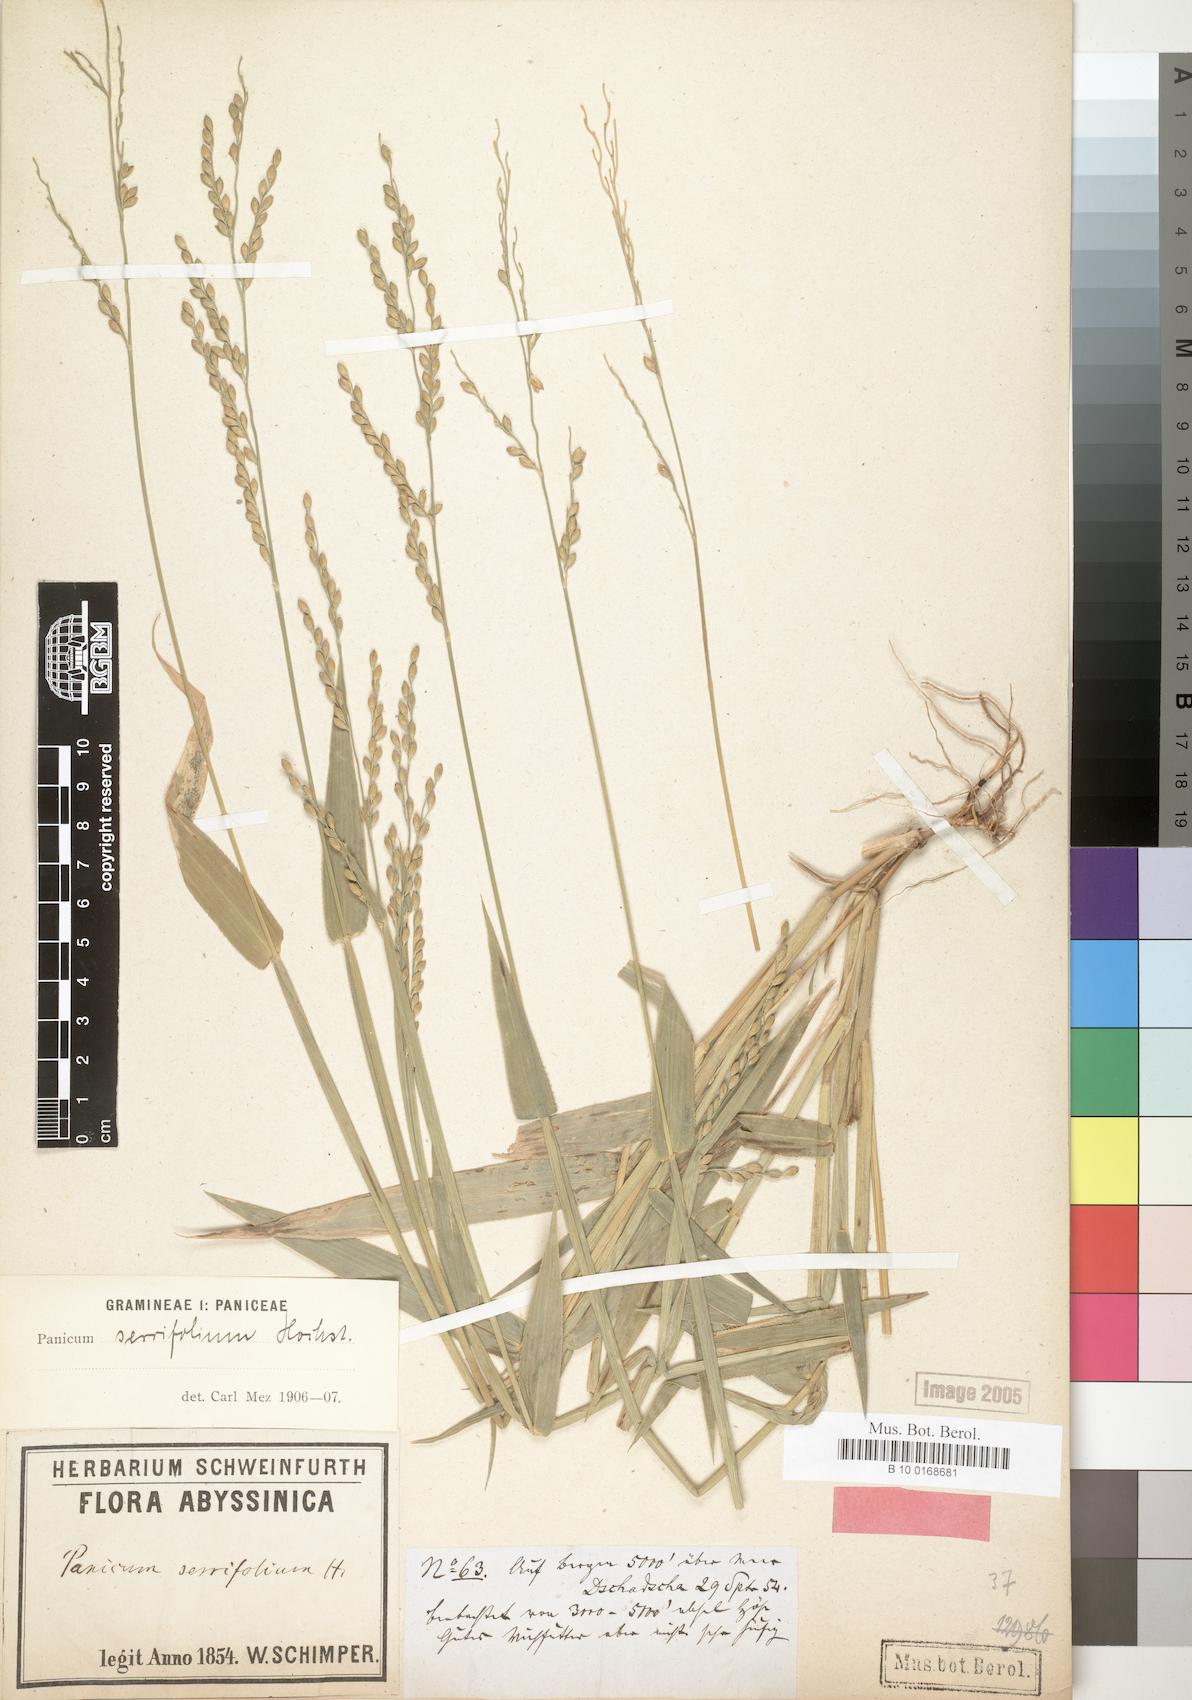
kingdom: Plantae
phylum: Tracheophyta
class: Liliopsida
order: Poales
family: Poaceae
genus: Urochloa
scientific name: Urochloa serrifolia
